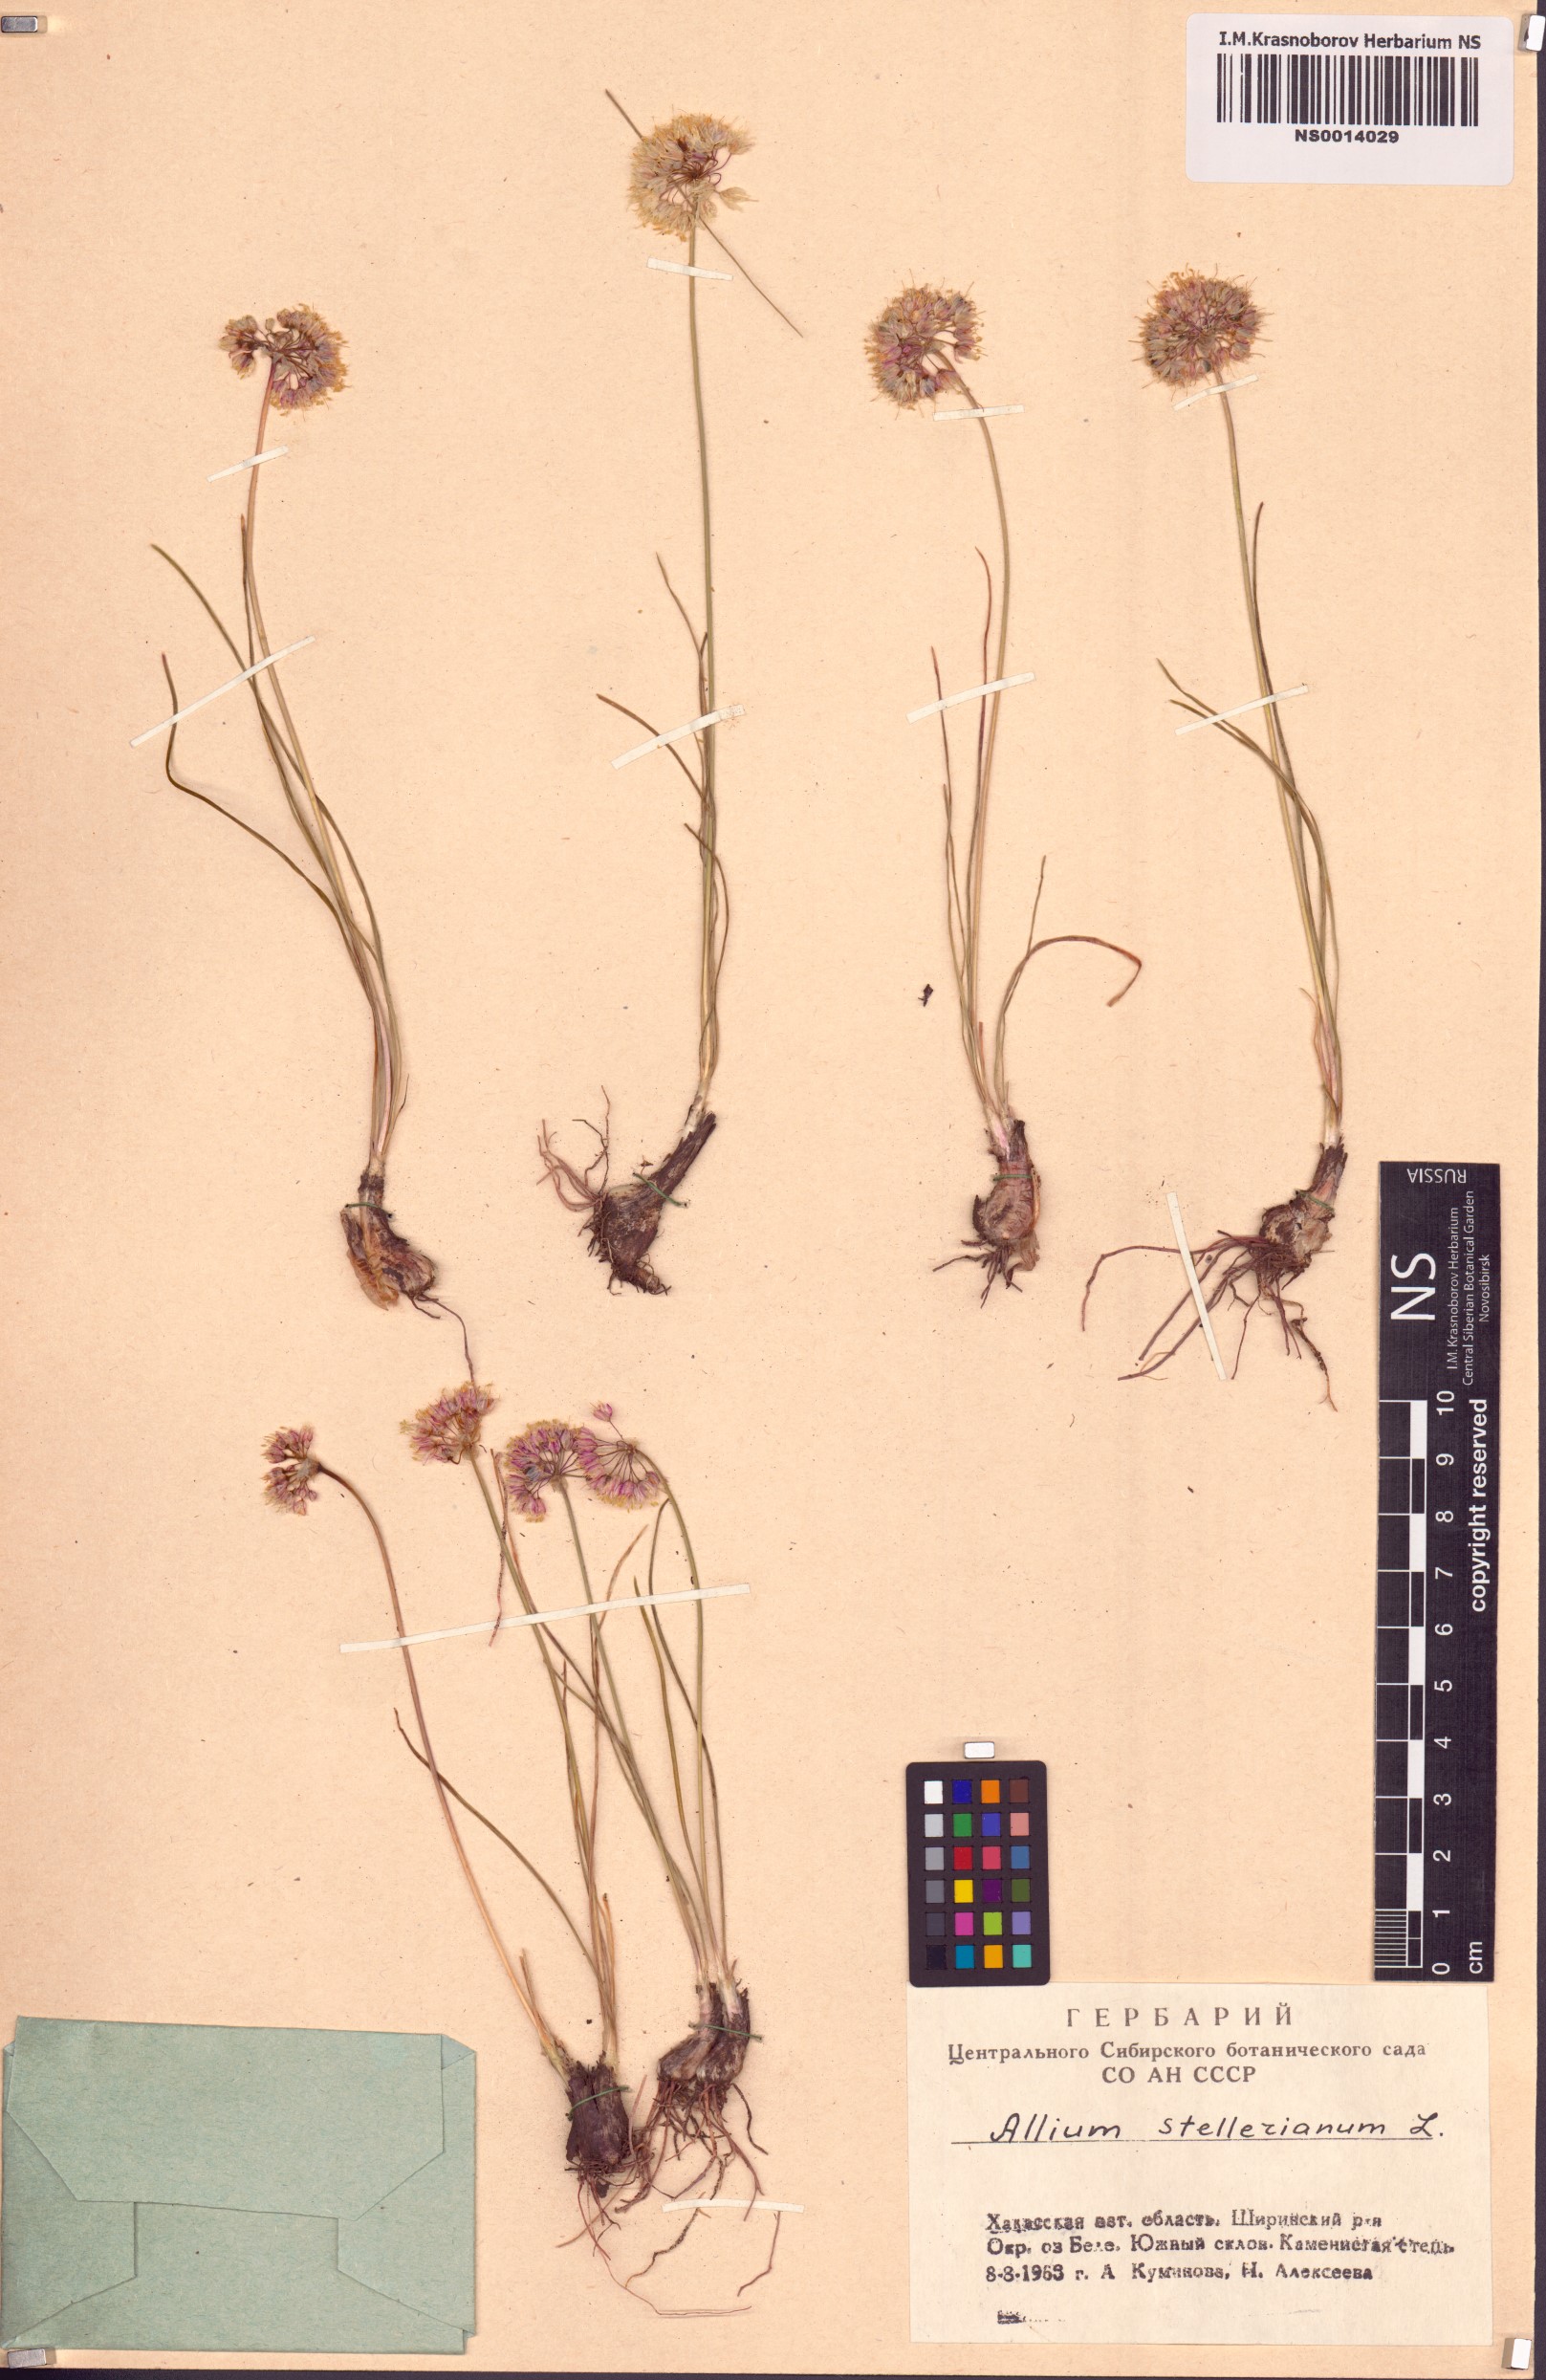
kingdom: Plantae
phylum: Tracheophyta
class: Liliopsida
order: Asparagales
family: Amaryllidaceae
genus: Allium
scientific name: Allium stellerianum
